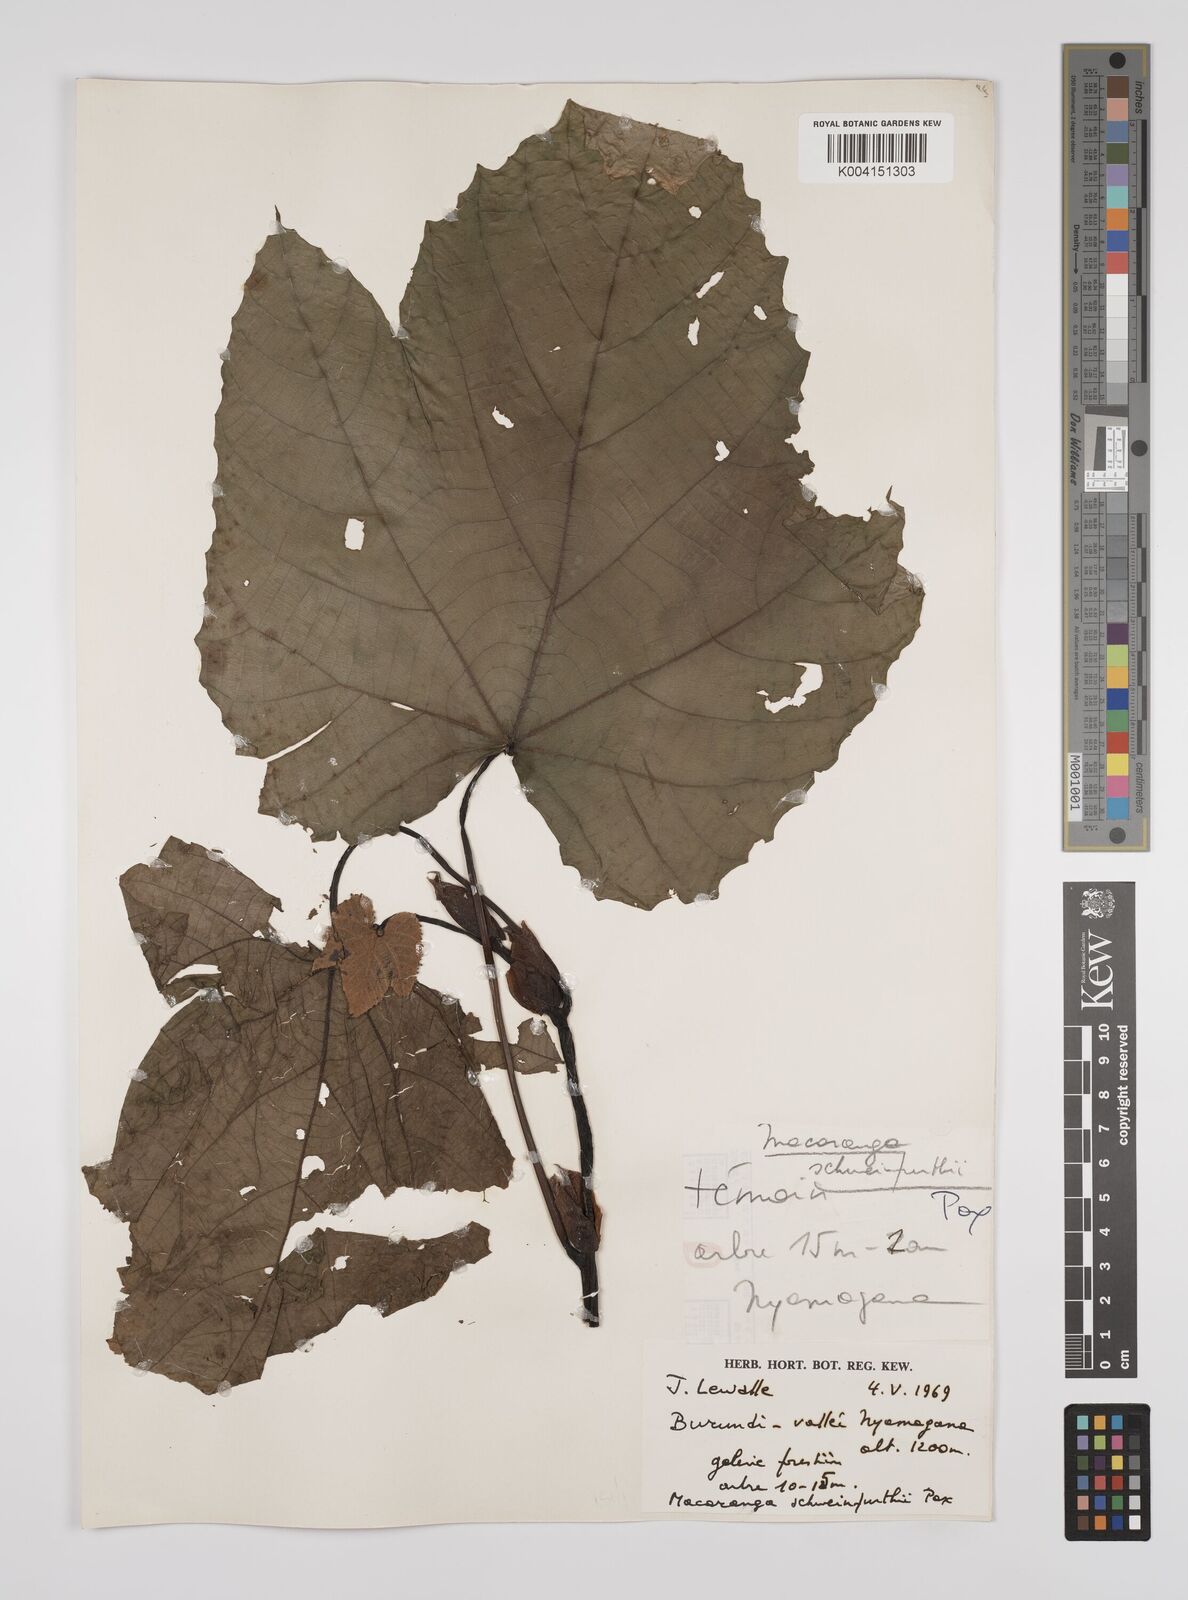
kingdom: Plantae
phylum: Tracheophyta
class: Magnoliopsida
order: Malpighiales
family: Euphorbiaceae
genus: Macaranga
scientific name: Macaranga schweinfurthii
